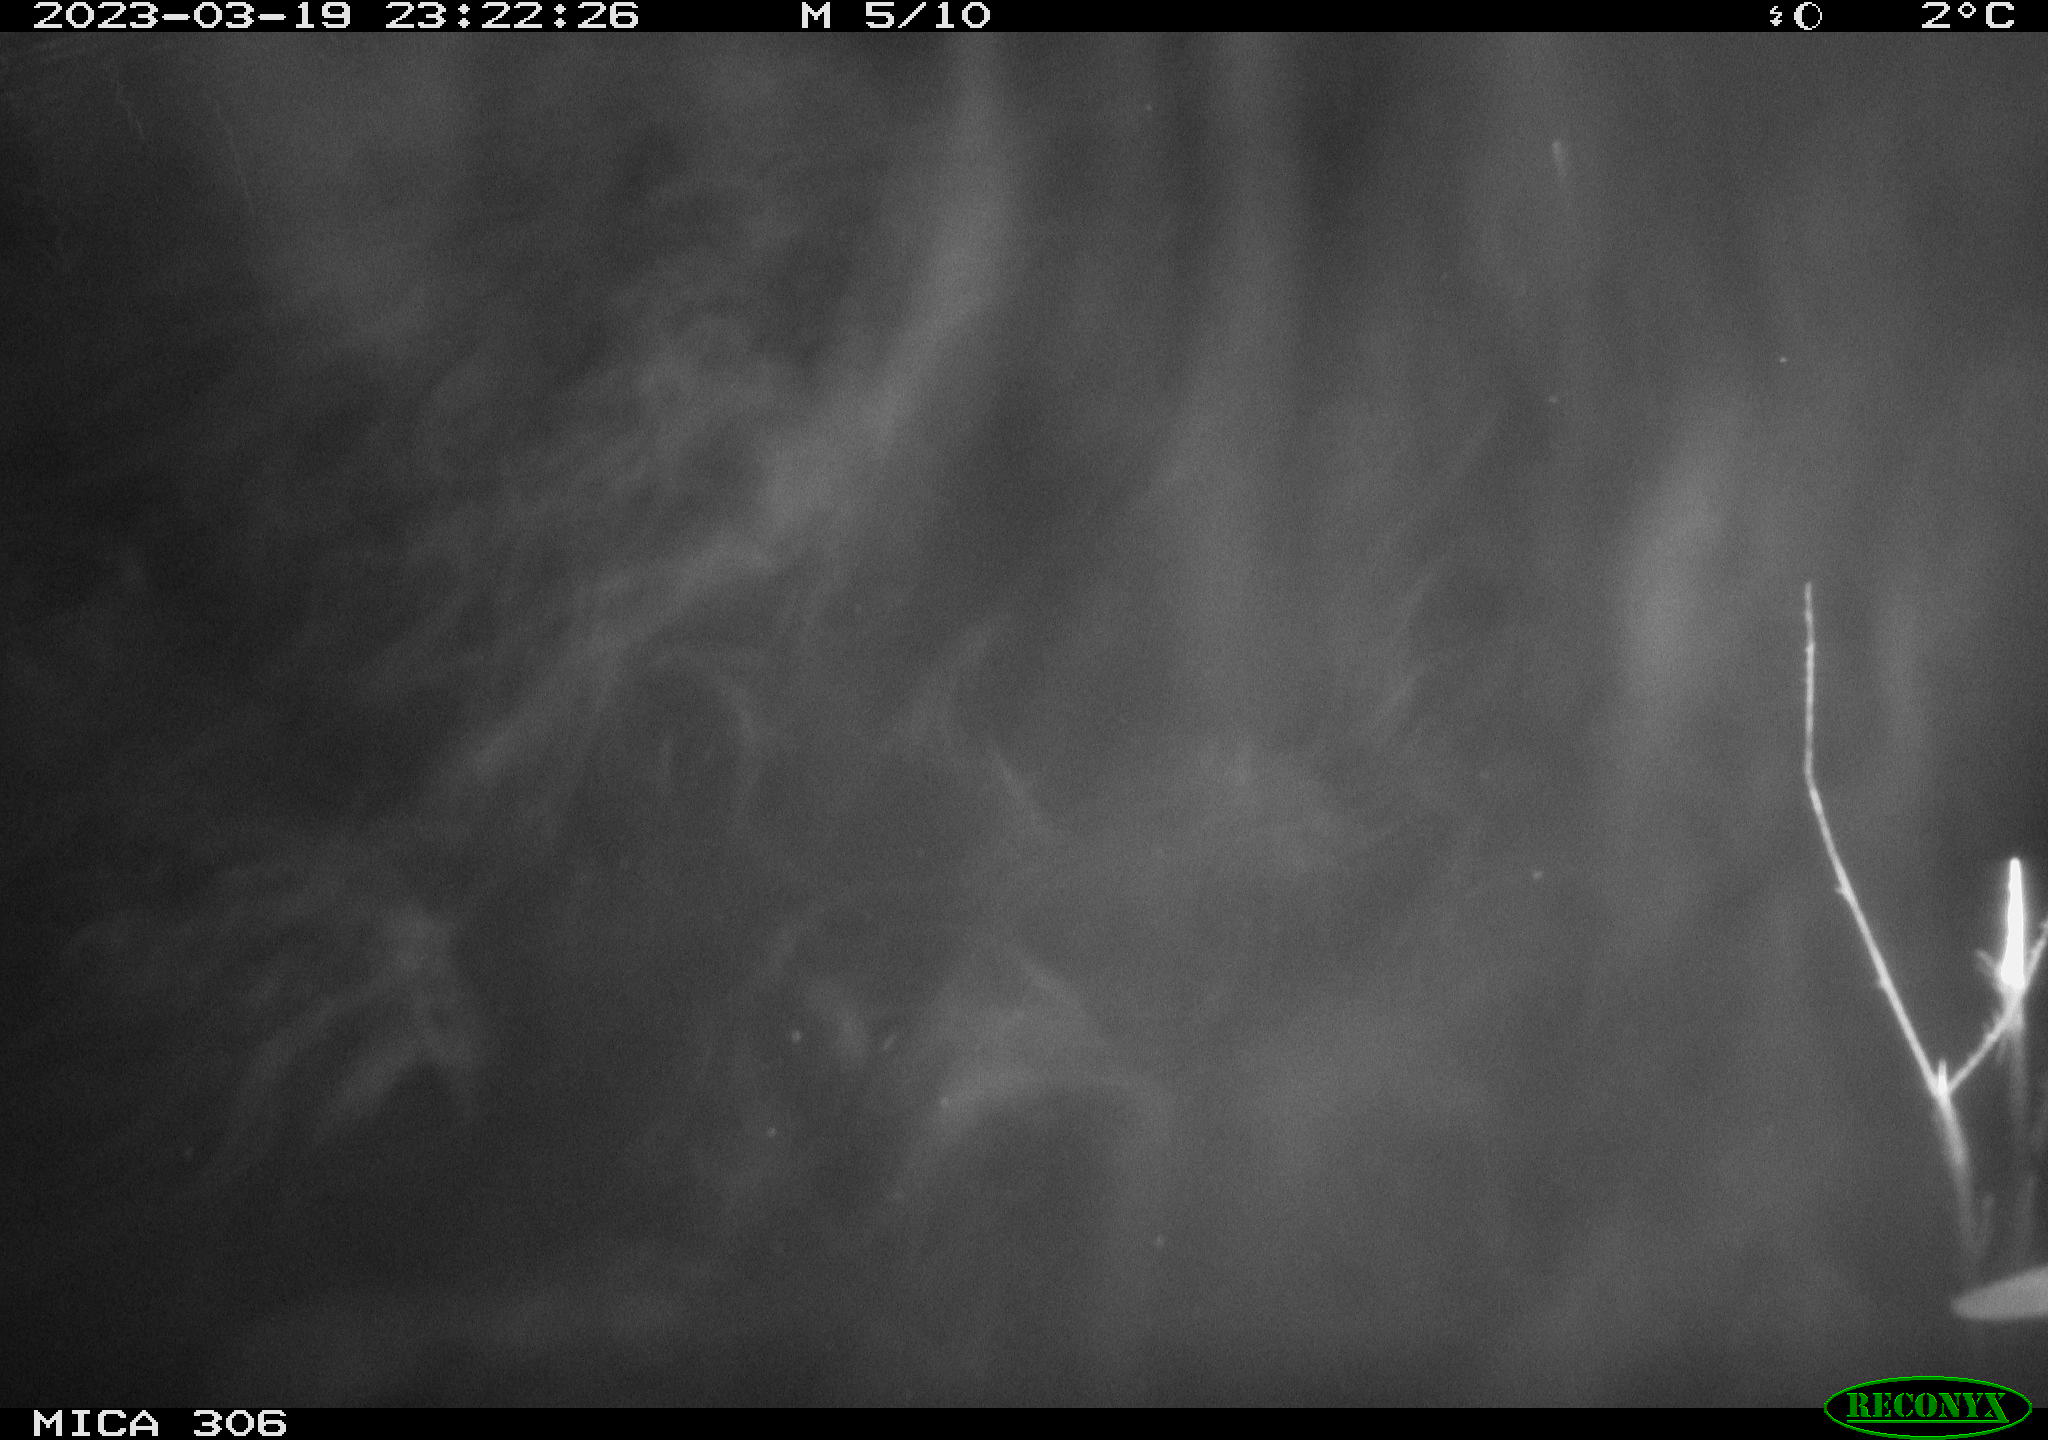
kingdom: Animalia
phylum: Chordata
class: Aves
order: Anseriformes
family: Anatidae
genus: Anas
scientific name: Anas
